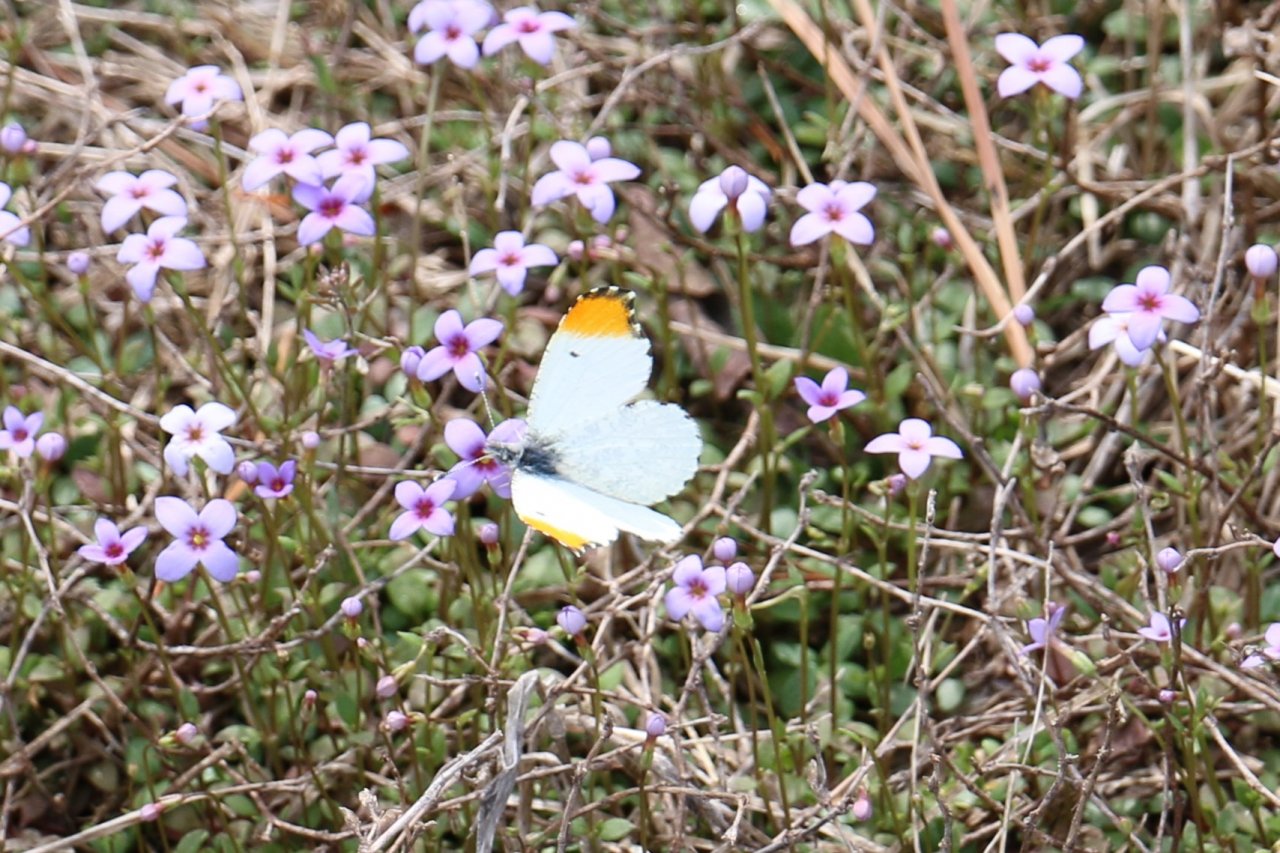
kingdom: Animalia
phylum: Arthropoda
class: Insecta
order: Lepidoptera
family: Pieridae
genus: Anthocharis
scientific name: Anthocharis midea
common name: Falcate Orangetip
